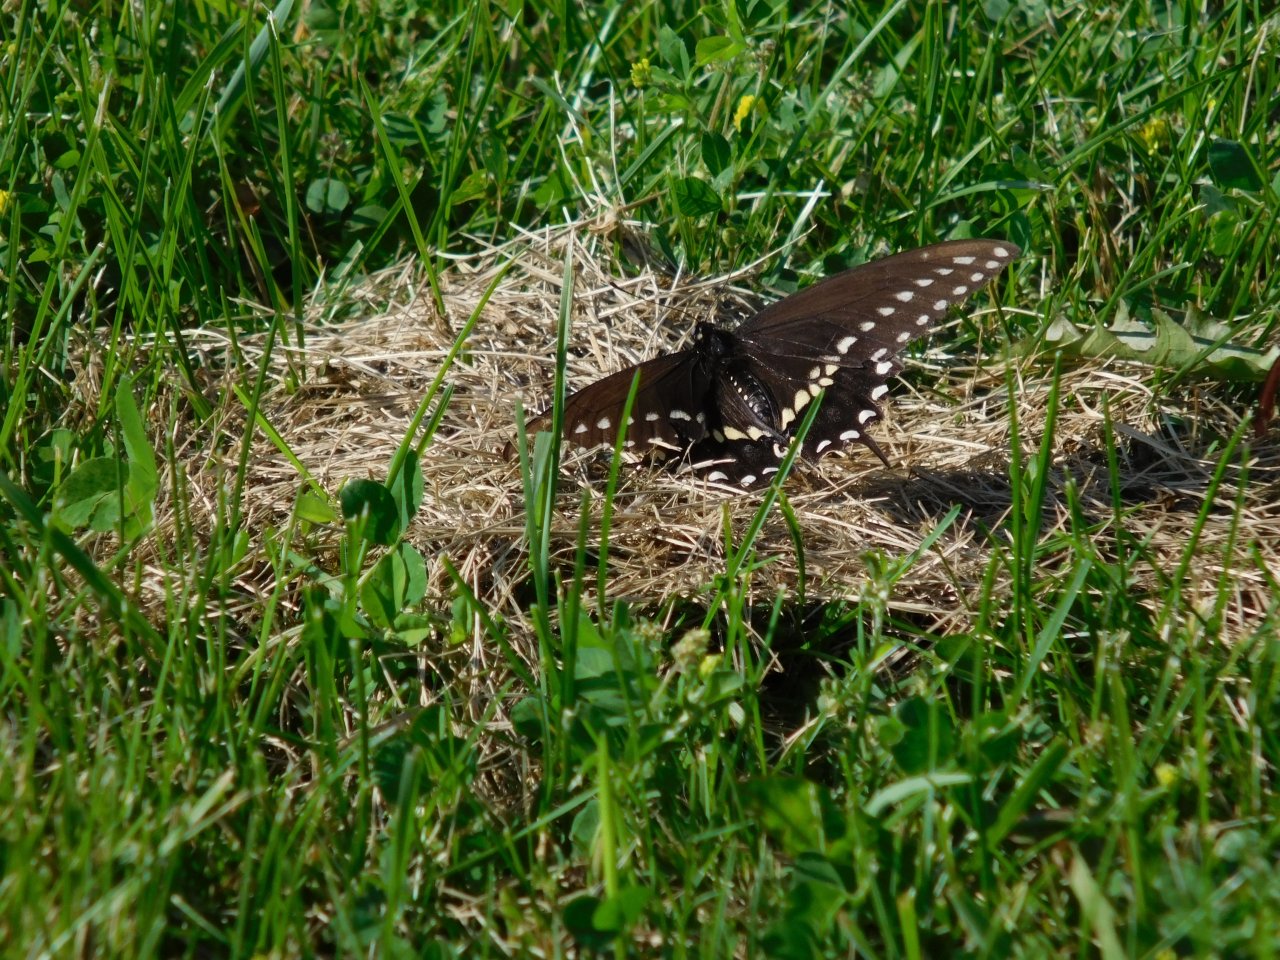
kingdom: Animalia
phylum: Arthropoda
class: Insecta
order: Lepidoptera
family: Papilionidae
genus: Papilio
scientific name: Papilio polyxenes
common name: Black Swallowtail
